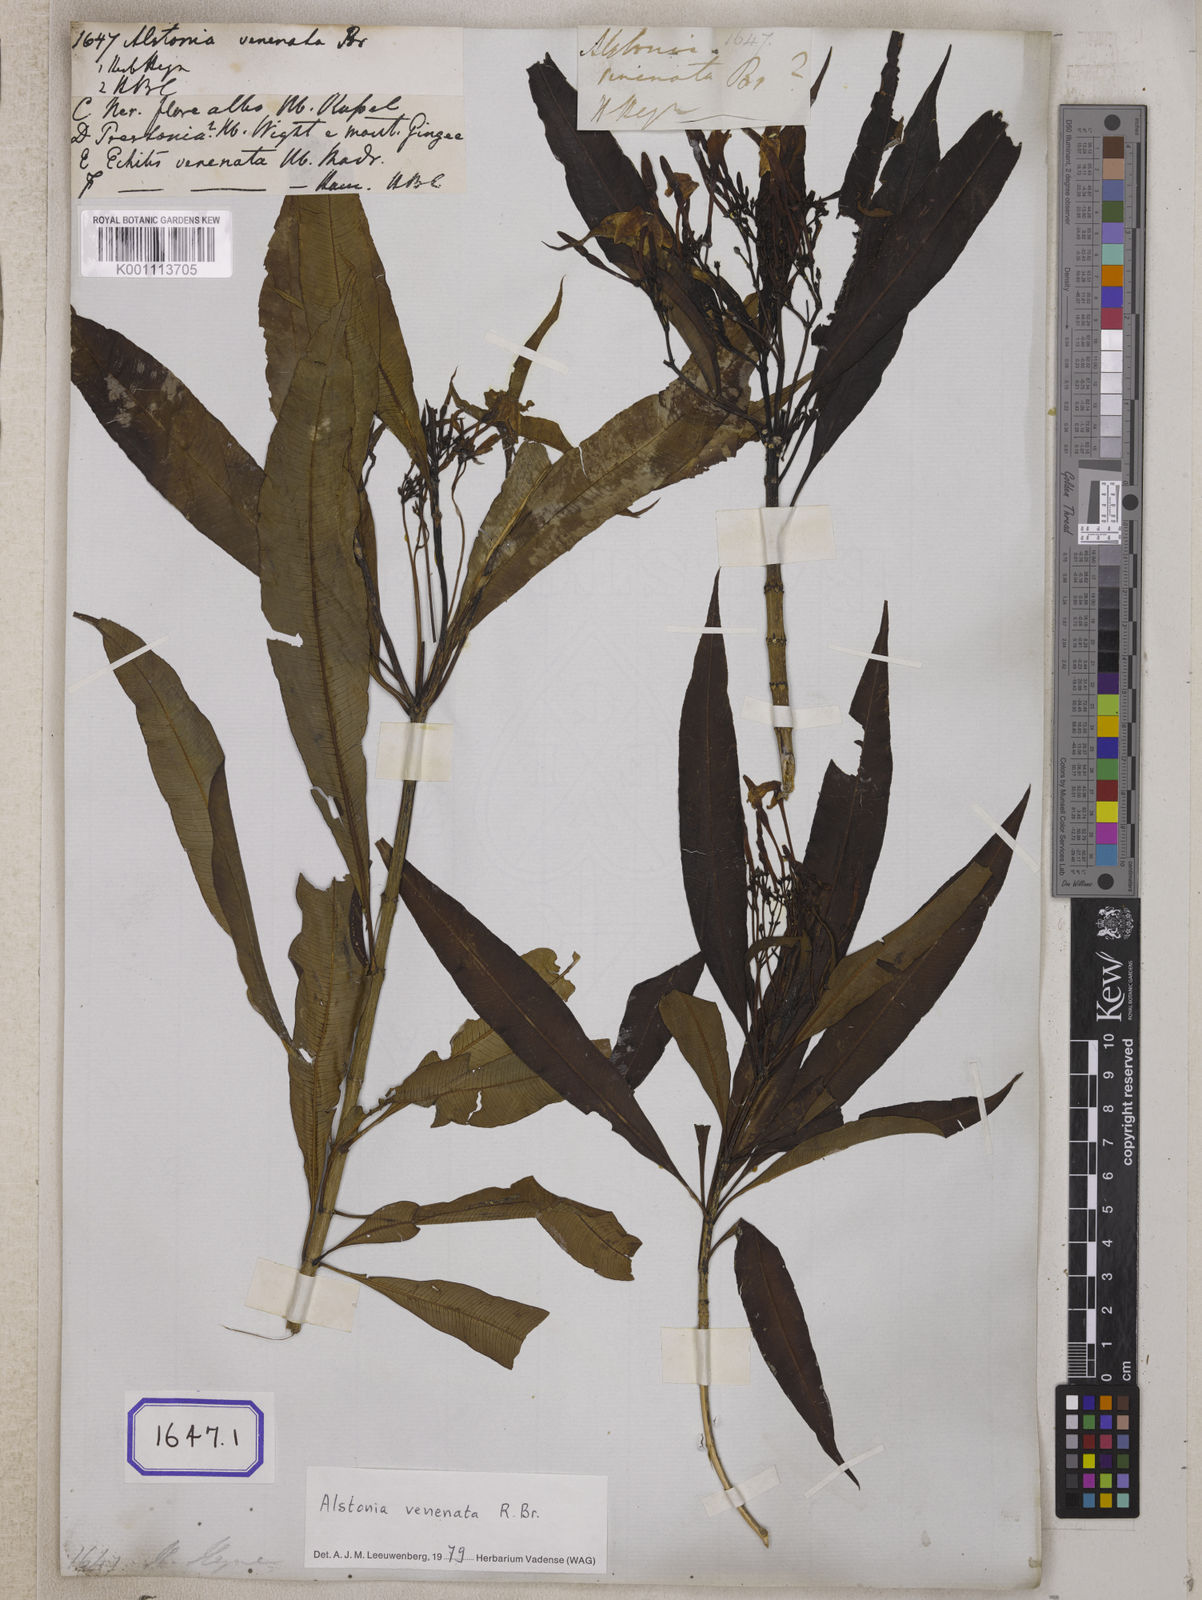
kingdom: Plantae
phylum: Tracheophyta
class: Magnoliopsida
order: Gentianales
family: Apocynaceae
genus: Alstonia
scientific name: Alstonia venenata
